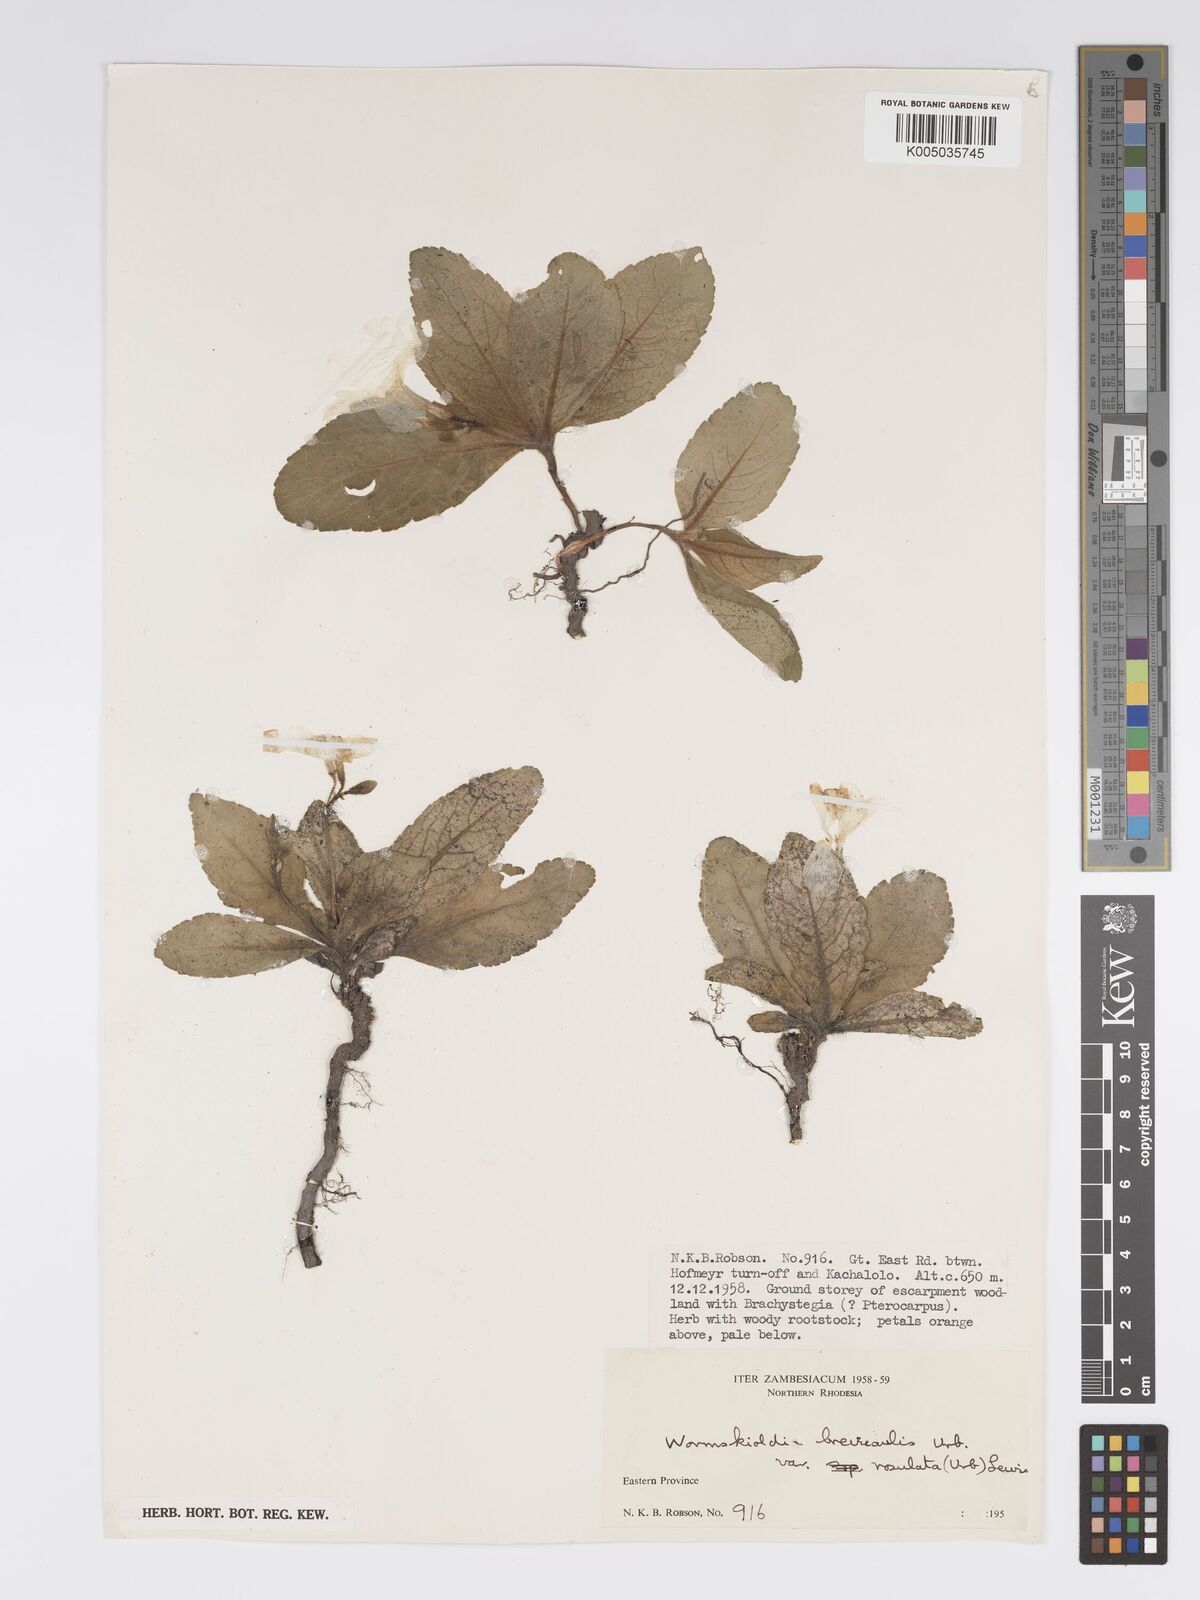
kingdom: Plantae
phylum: Tracheophyta
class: Magnoliopsida
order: Malpighiales
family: Turneraceae
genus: Tricliceras
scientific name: Tricliceras brevicaule
